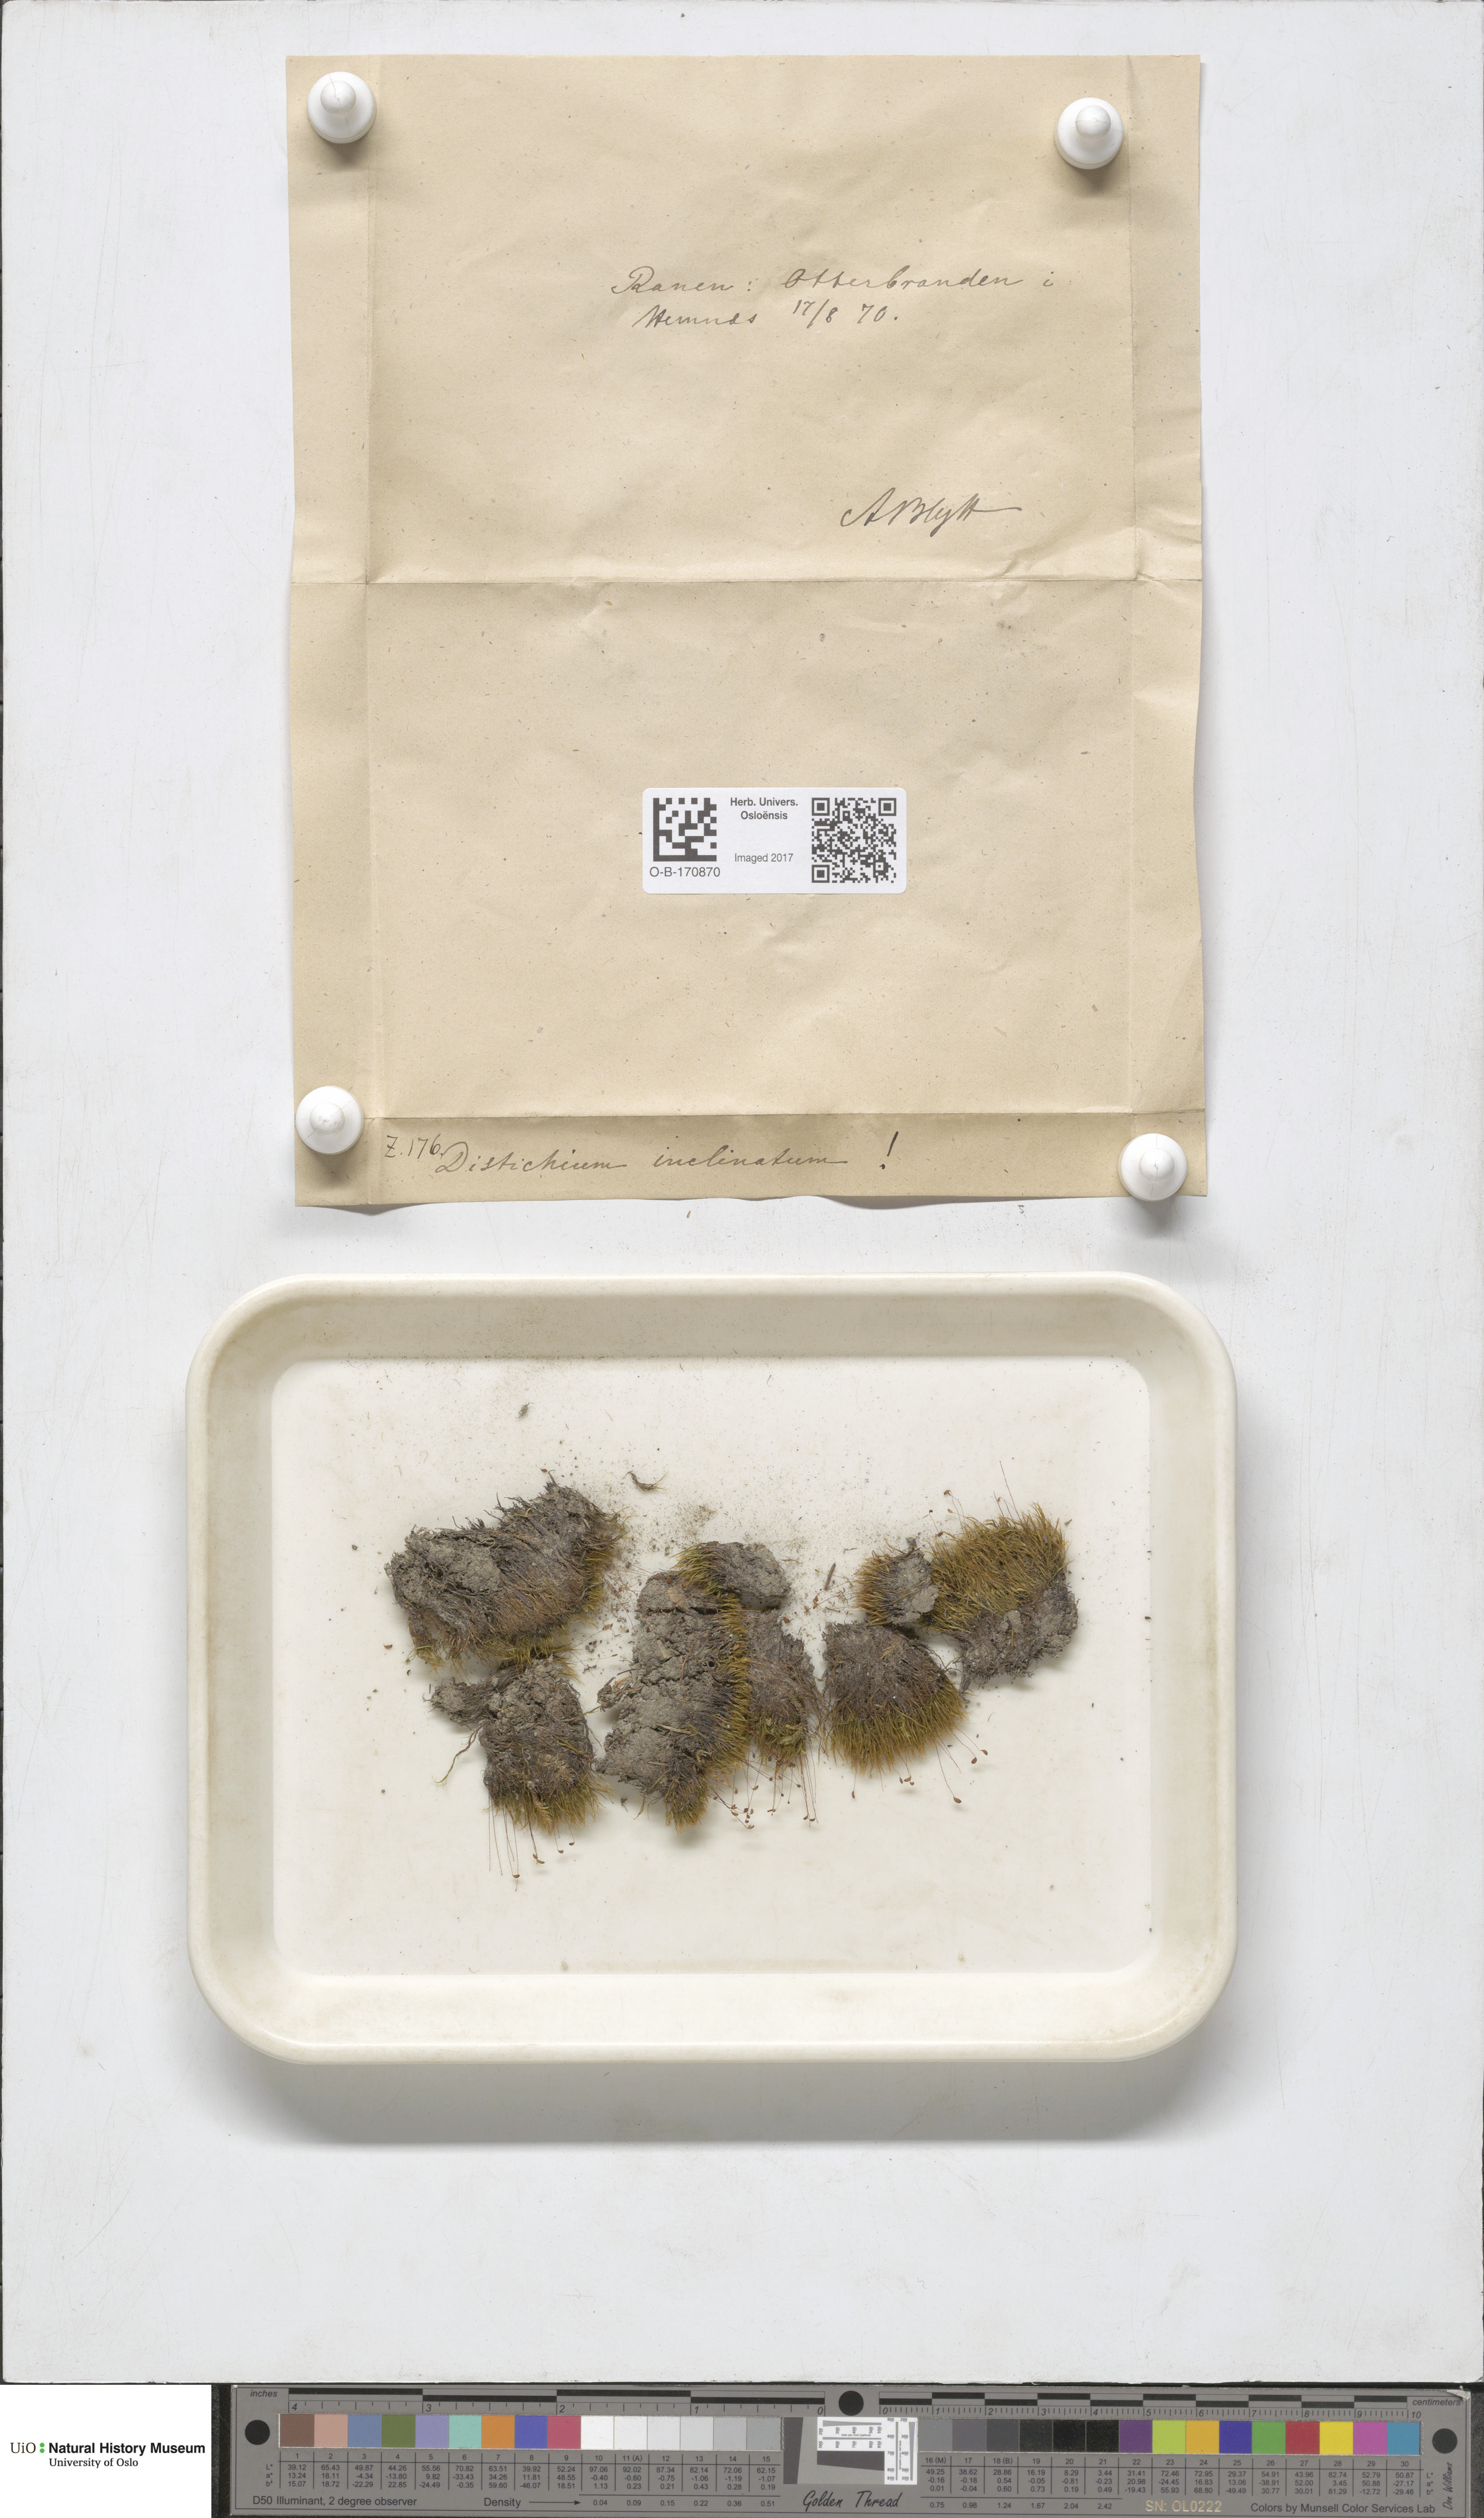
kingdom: Plantae
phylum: Bryophyta
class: Bryopsida
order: Scouleriales
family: Distichiaceae
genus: Distichium
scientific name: Distichium inclinatum
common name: Inclined iris moss
